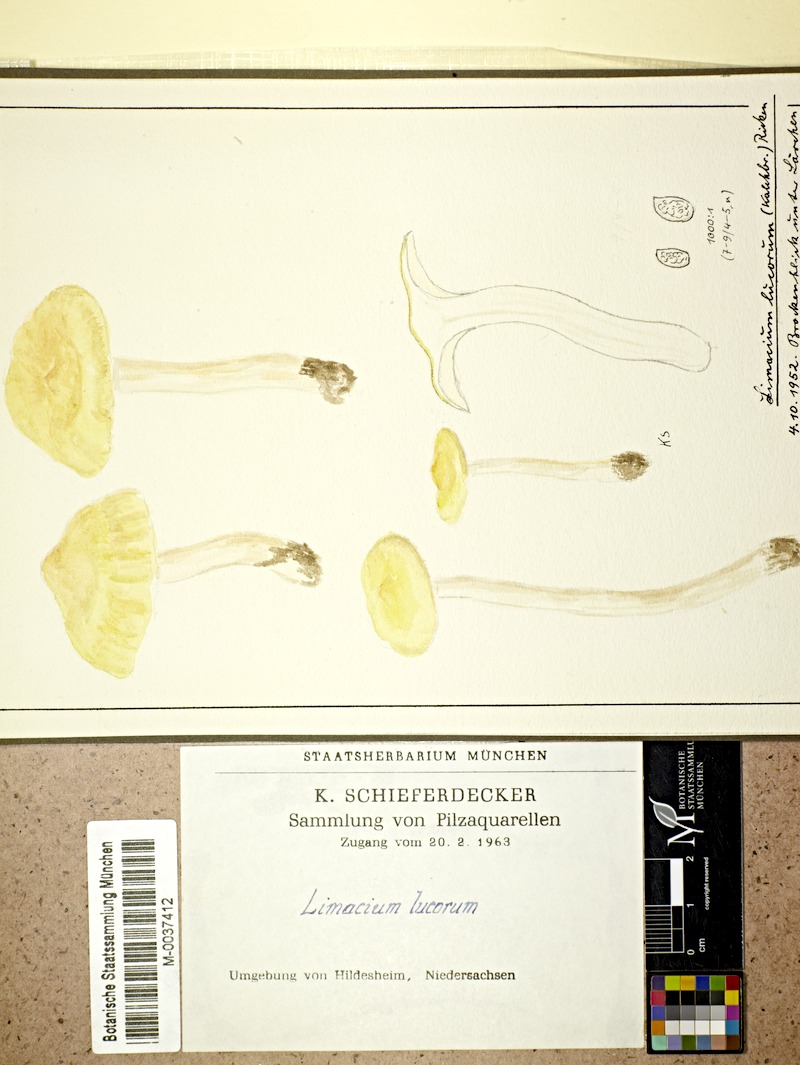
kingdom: Fungi
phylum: Basidiomycota
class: Agaricomycetes
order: Agaricales
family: Hygrophoraceae
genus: Hygrophorus
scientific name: Hygrophorus lucorum
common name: Larch woodwax
